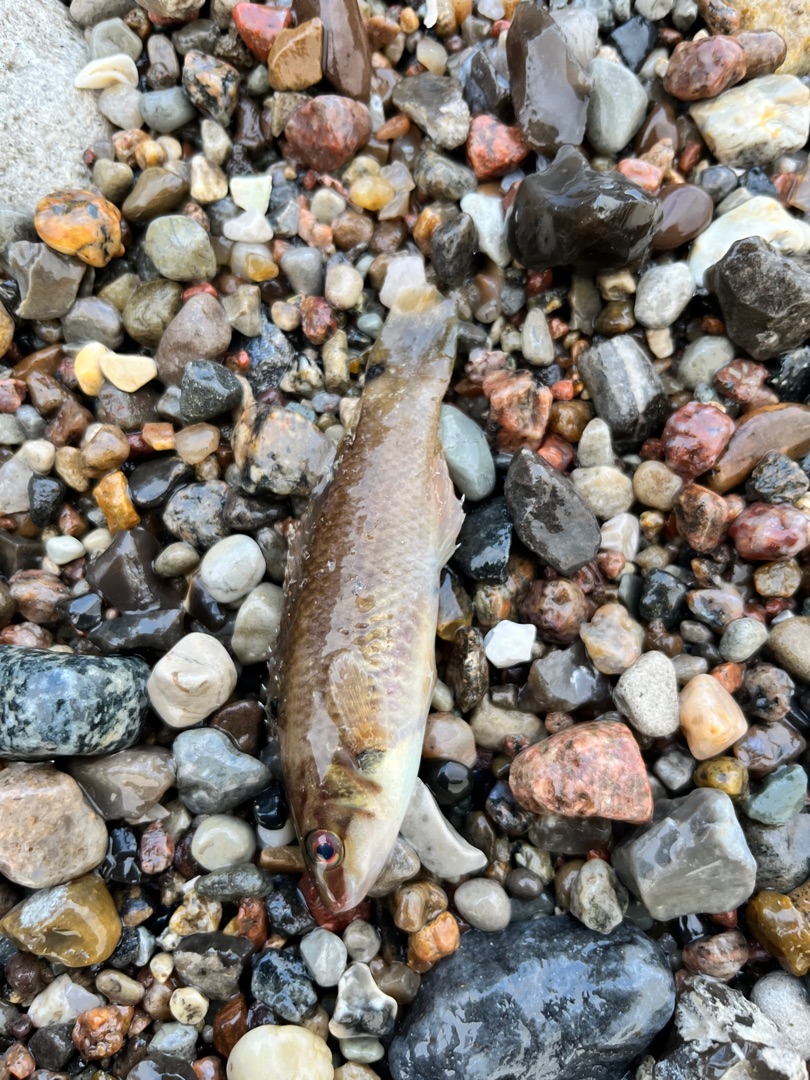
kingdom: Animalia
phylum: Chordata
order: Perciformes
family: Labridae
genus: Ctenolabrus
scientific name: Ctenolabrus rupestris
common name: Havkarusse
